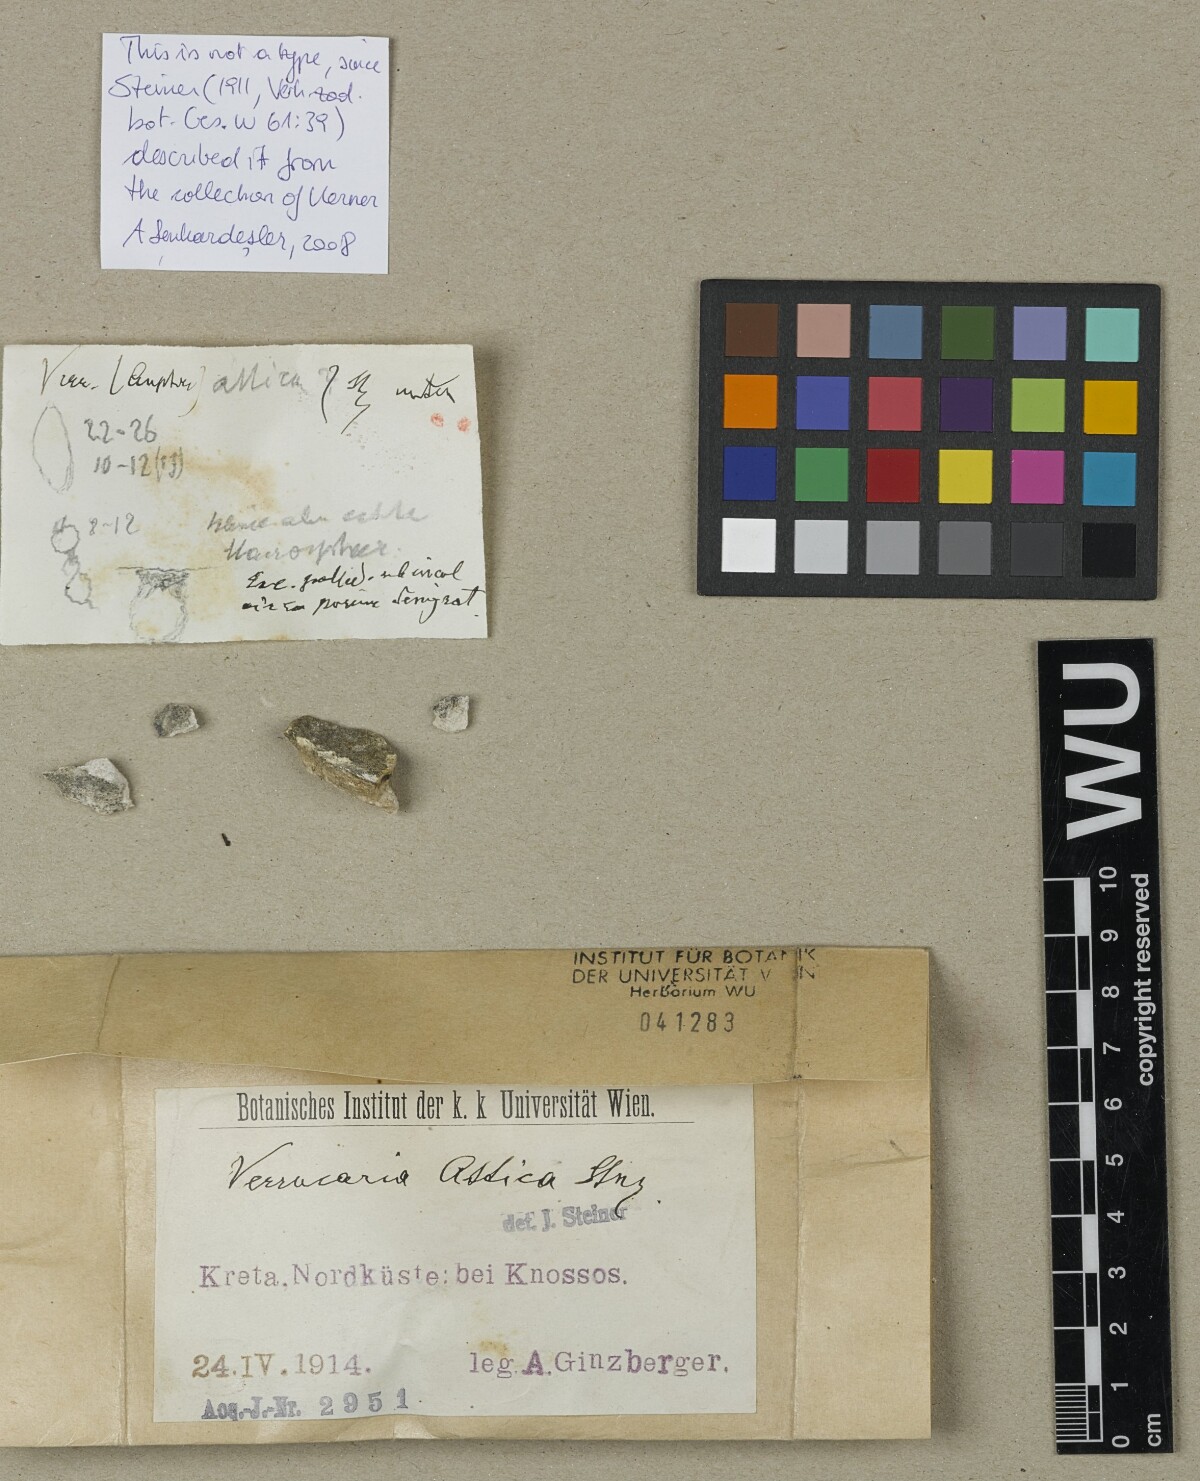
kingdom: Fungi
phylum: Ascomycota
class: Eurotiomycetes
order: Verrucariales
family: Verrucariaceae
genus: Verrucaria
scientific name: Verrucaria attica
